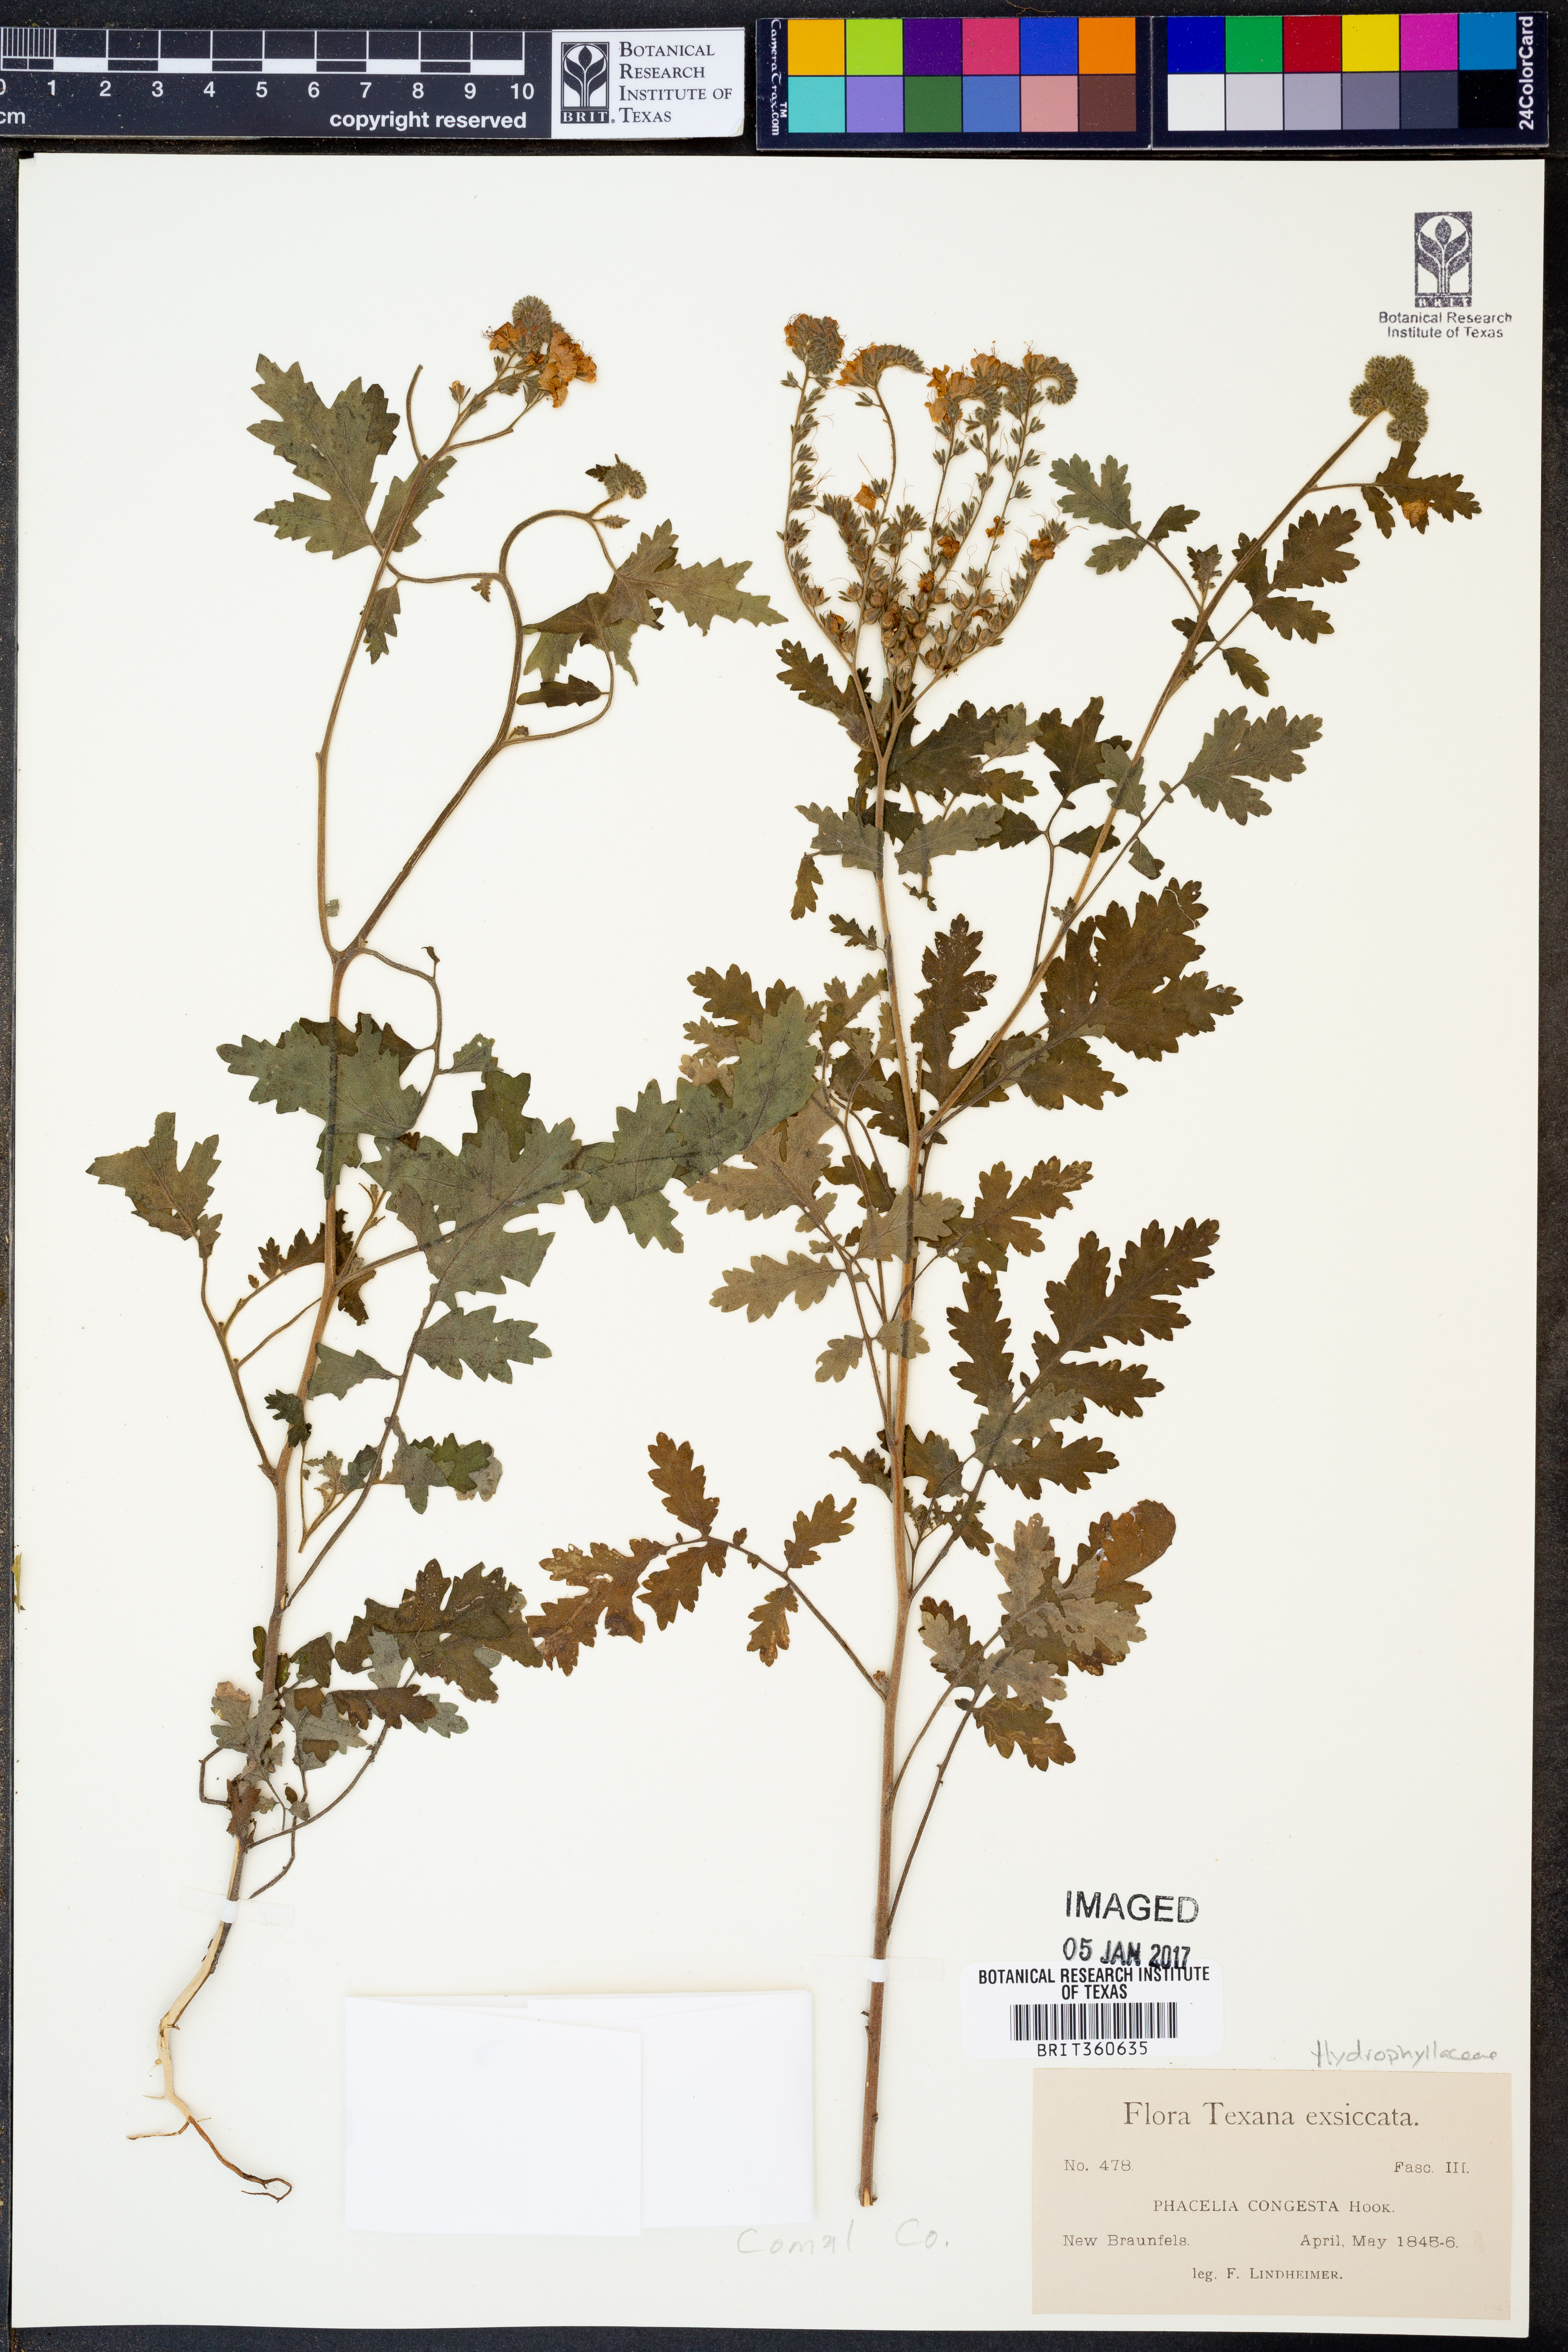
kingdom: Plantae
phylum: Tracheophyta
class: Magnoliopsida
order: Boraginales
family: Hydrophyllaceae
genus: Phacelia
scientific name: Phacelia congesta
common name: Blue curls
